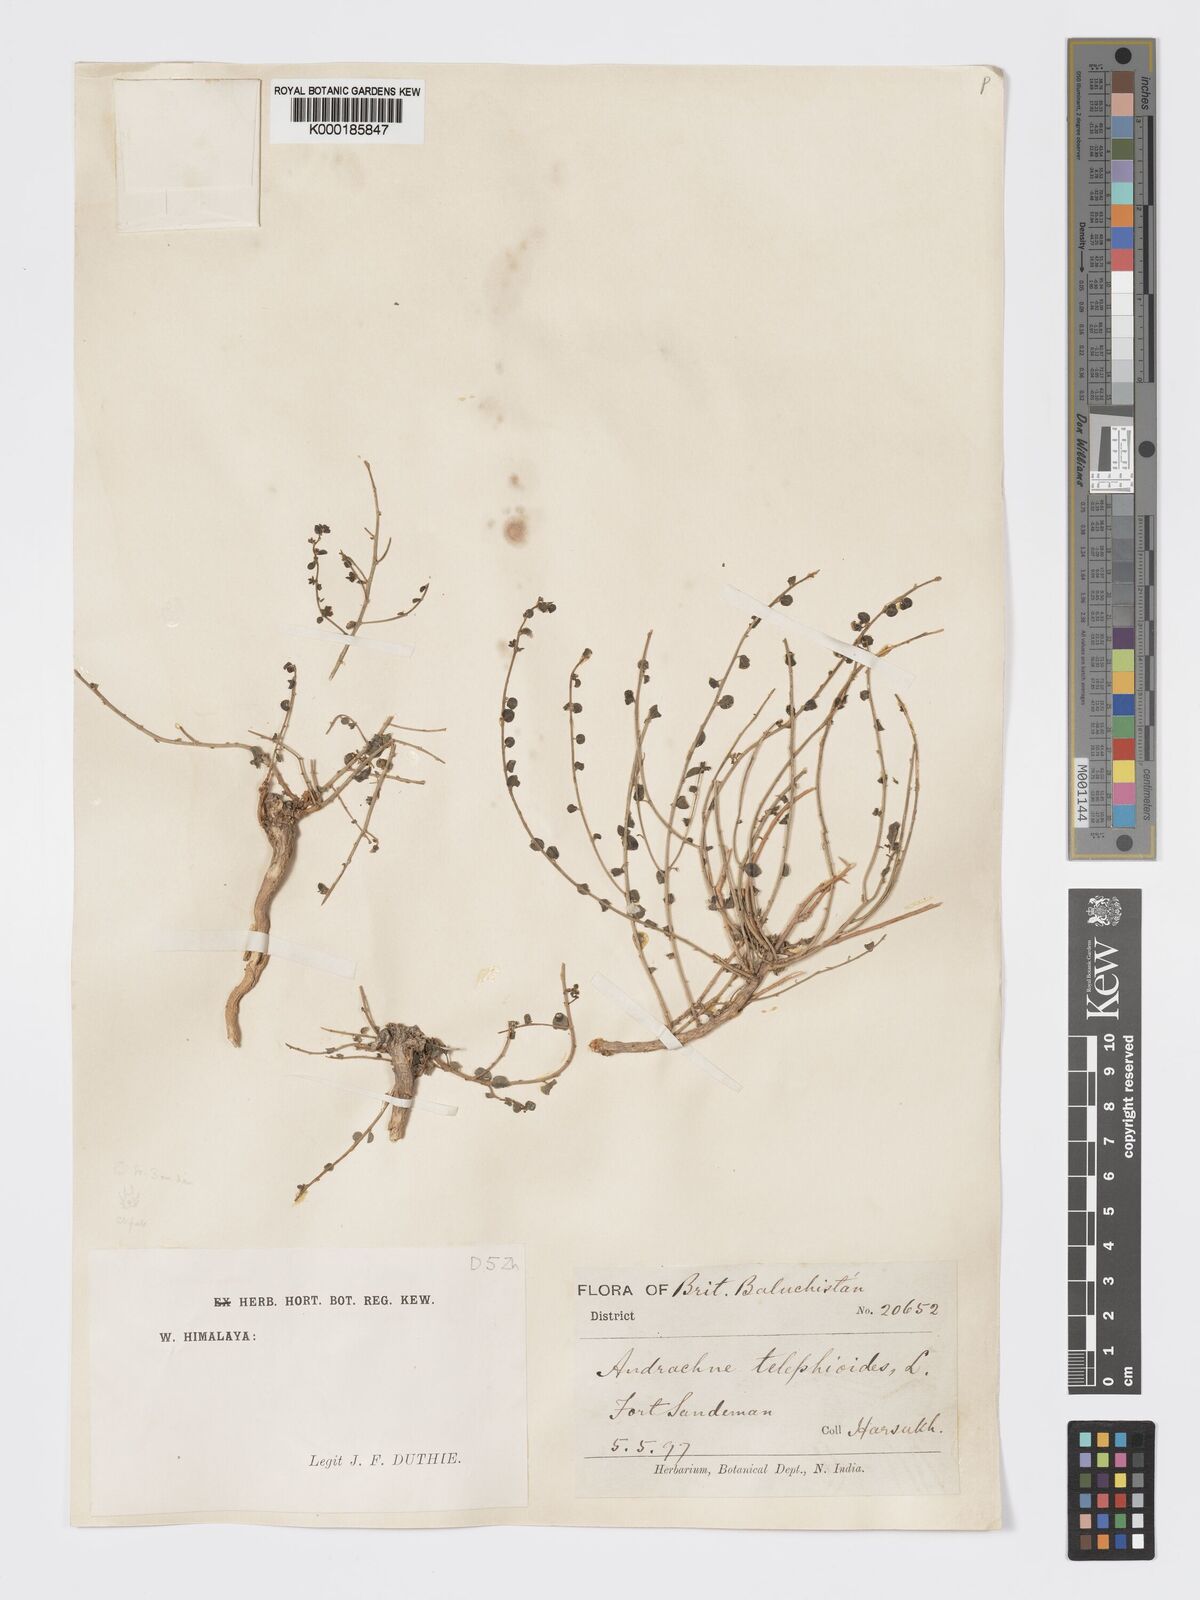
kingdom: Plantae
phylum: Tracheophyta
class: Magnoliopsida
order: Malpighiales
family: Phyllanthaceae
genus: Andrachne
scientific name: Andrachne telephioides
